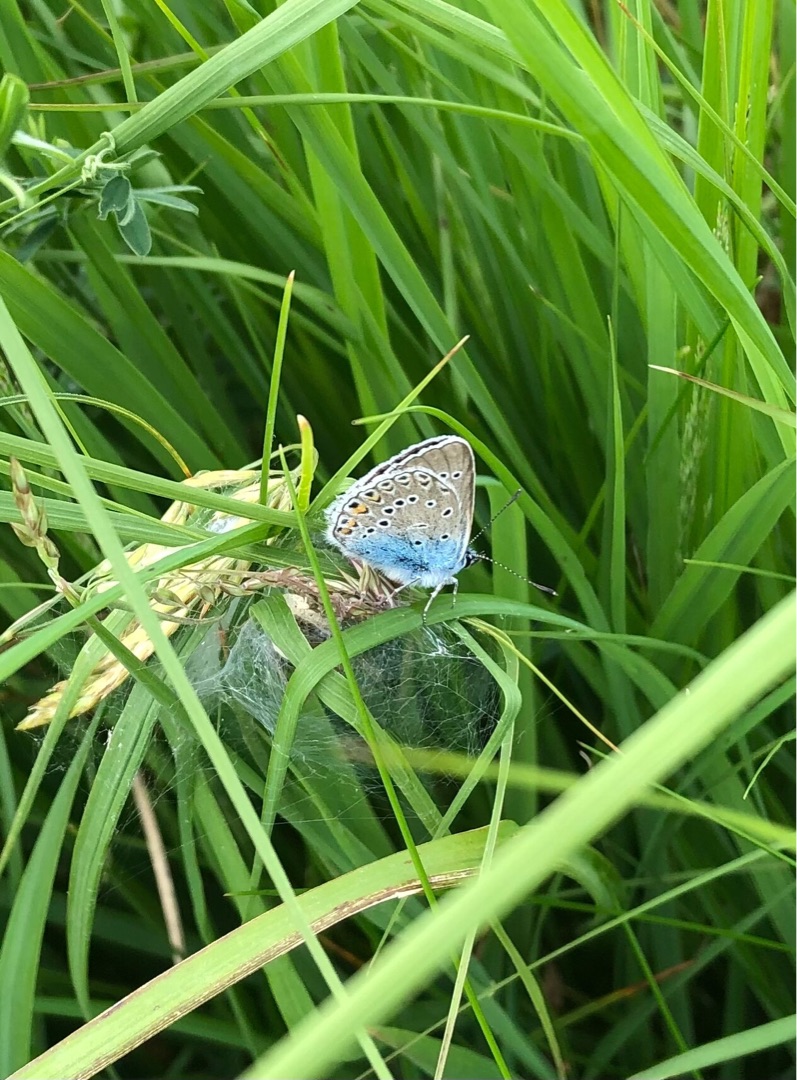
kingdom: Animalia
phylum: Arthropoda
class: Insecta
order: Lepidoptera
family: Lycaenidae
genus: Plebejus
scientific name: Plebejus amanda
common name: Isblåfugl
